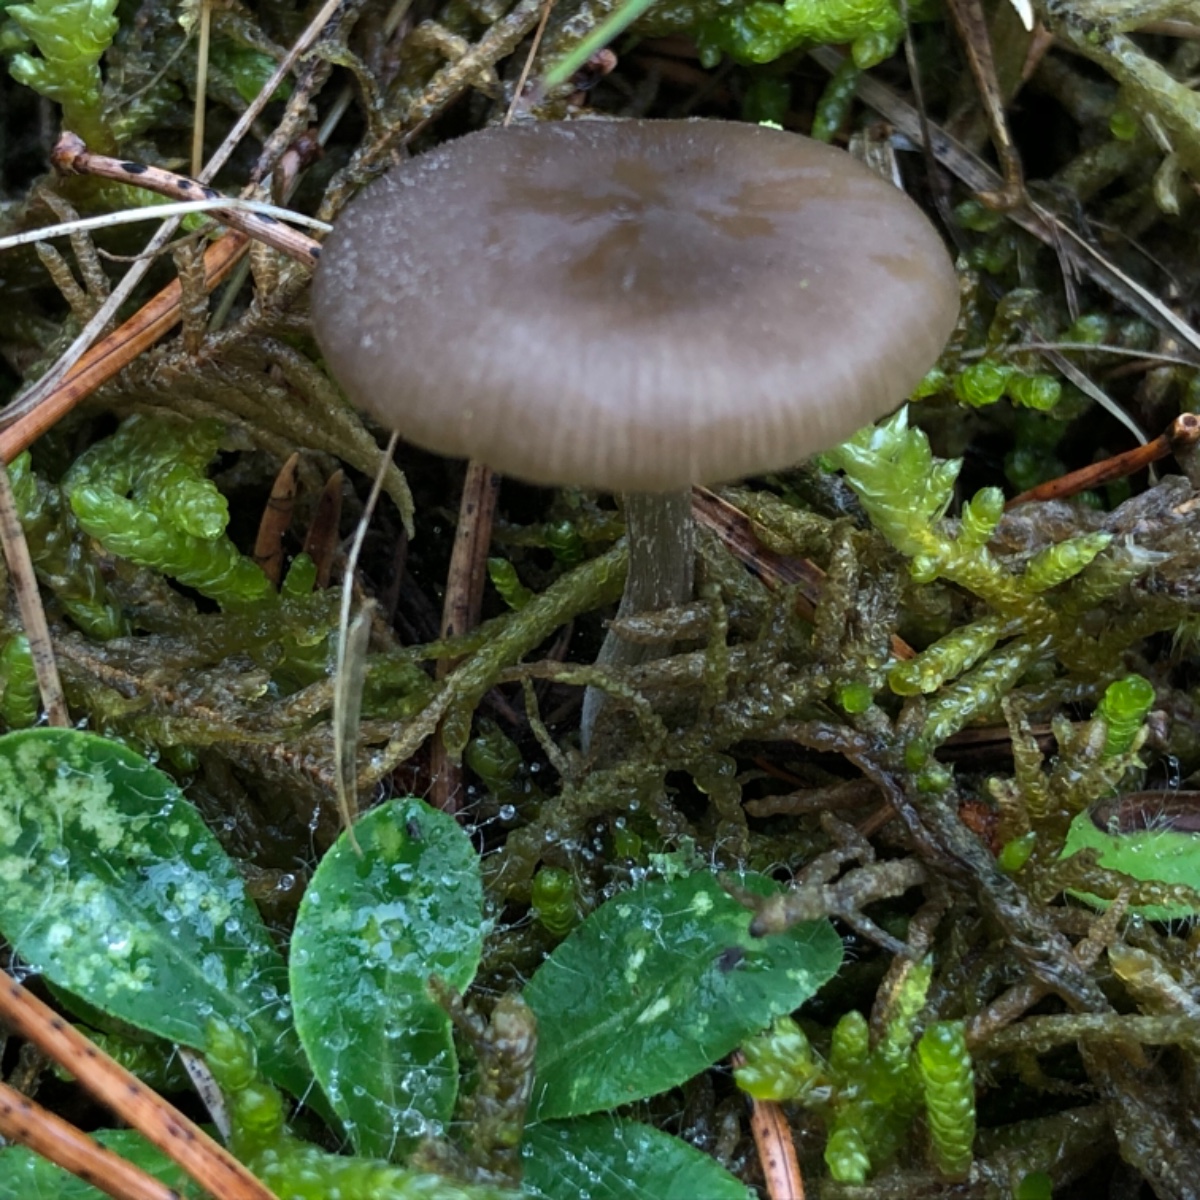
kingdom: Fungi
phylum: Basidiomycota
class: Agaricomycetes
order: Agaricales
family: Entolomataceae
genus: Entoloma
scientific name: Entoloma sericeum
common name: silkeglinsende rødblad
